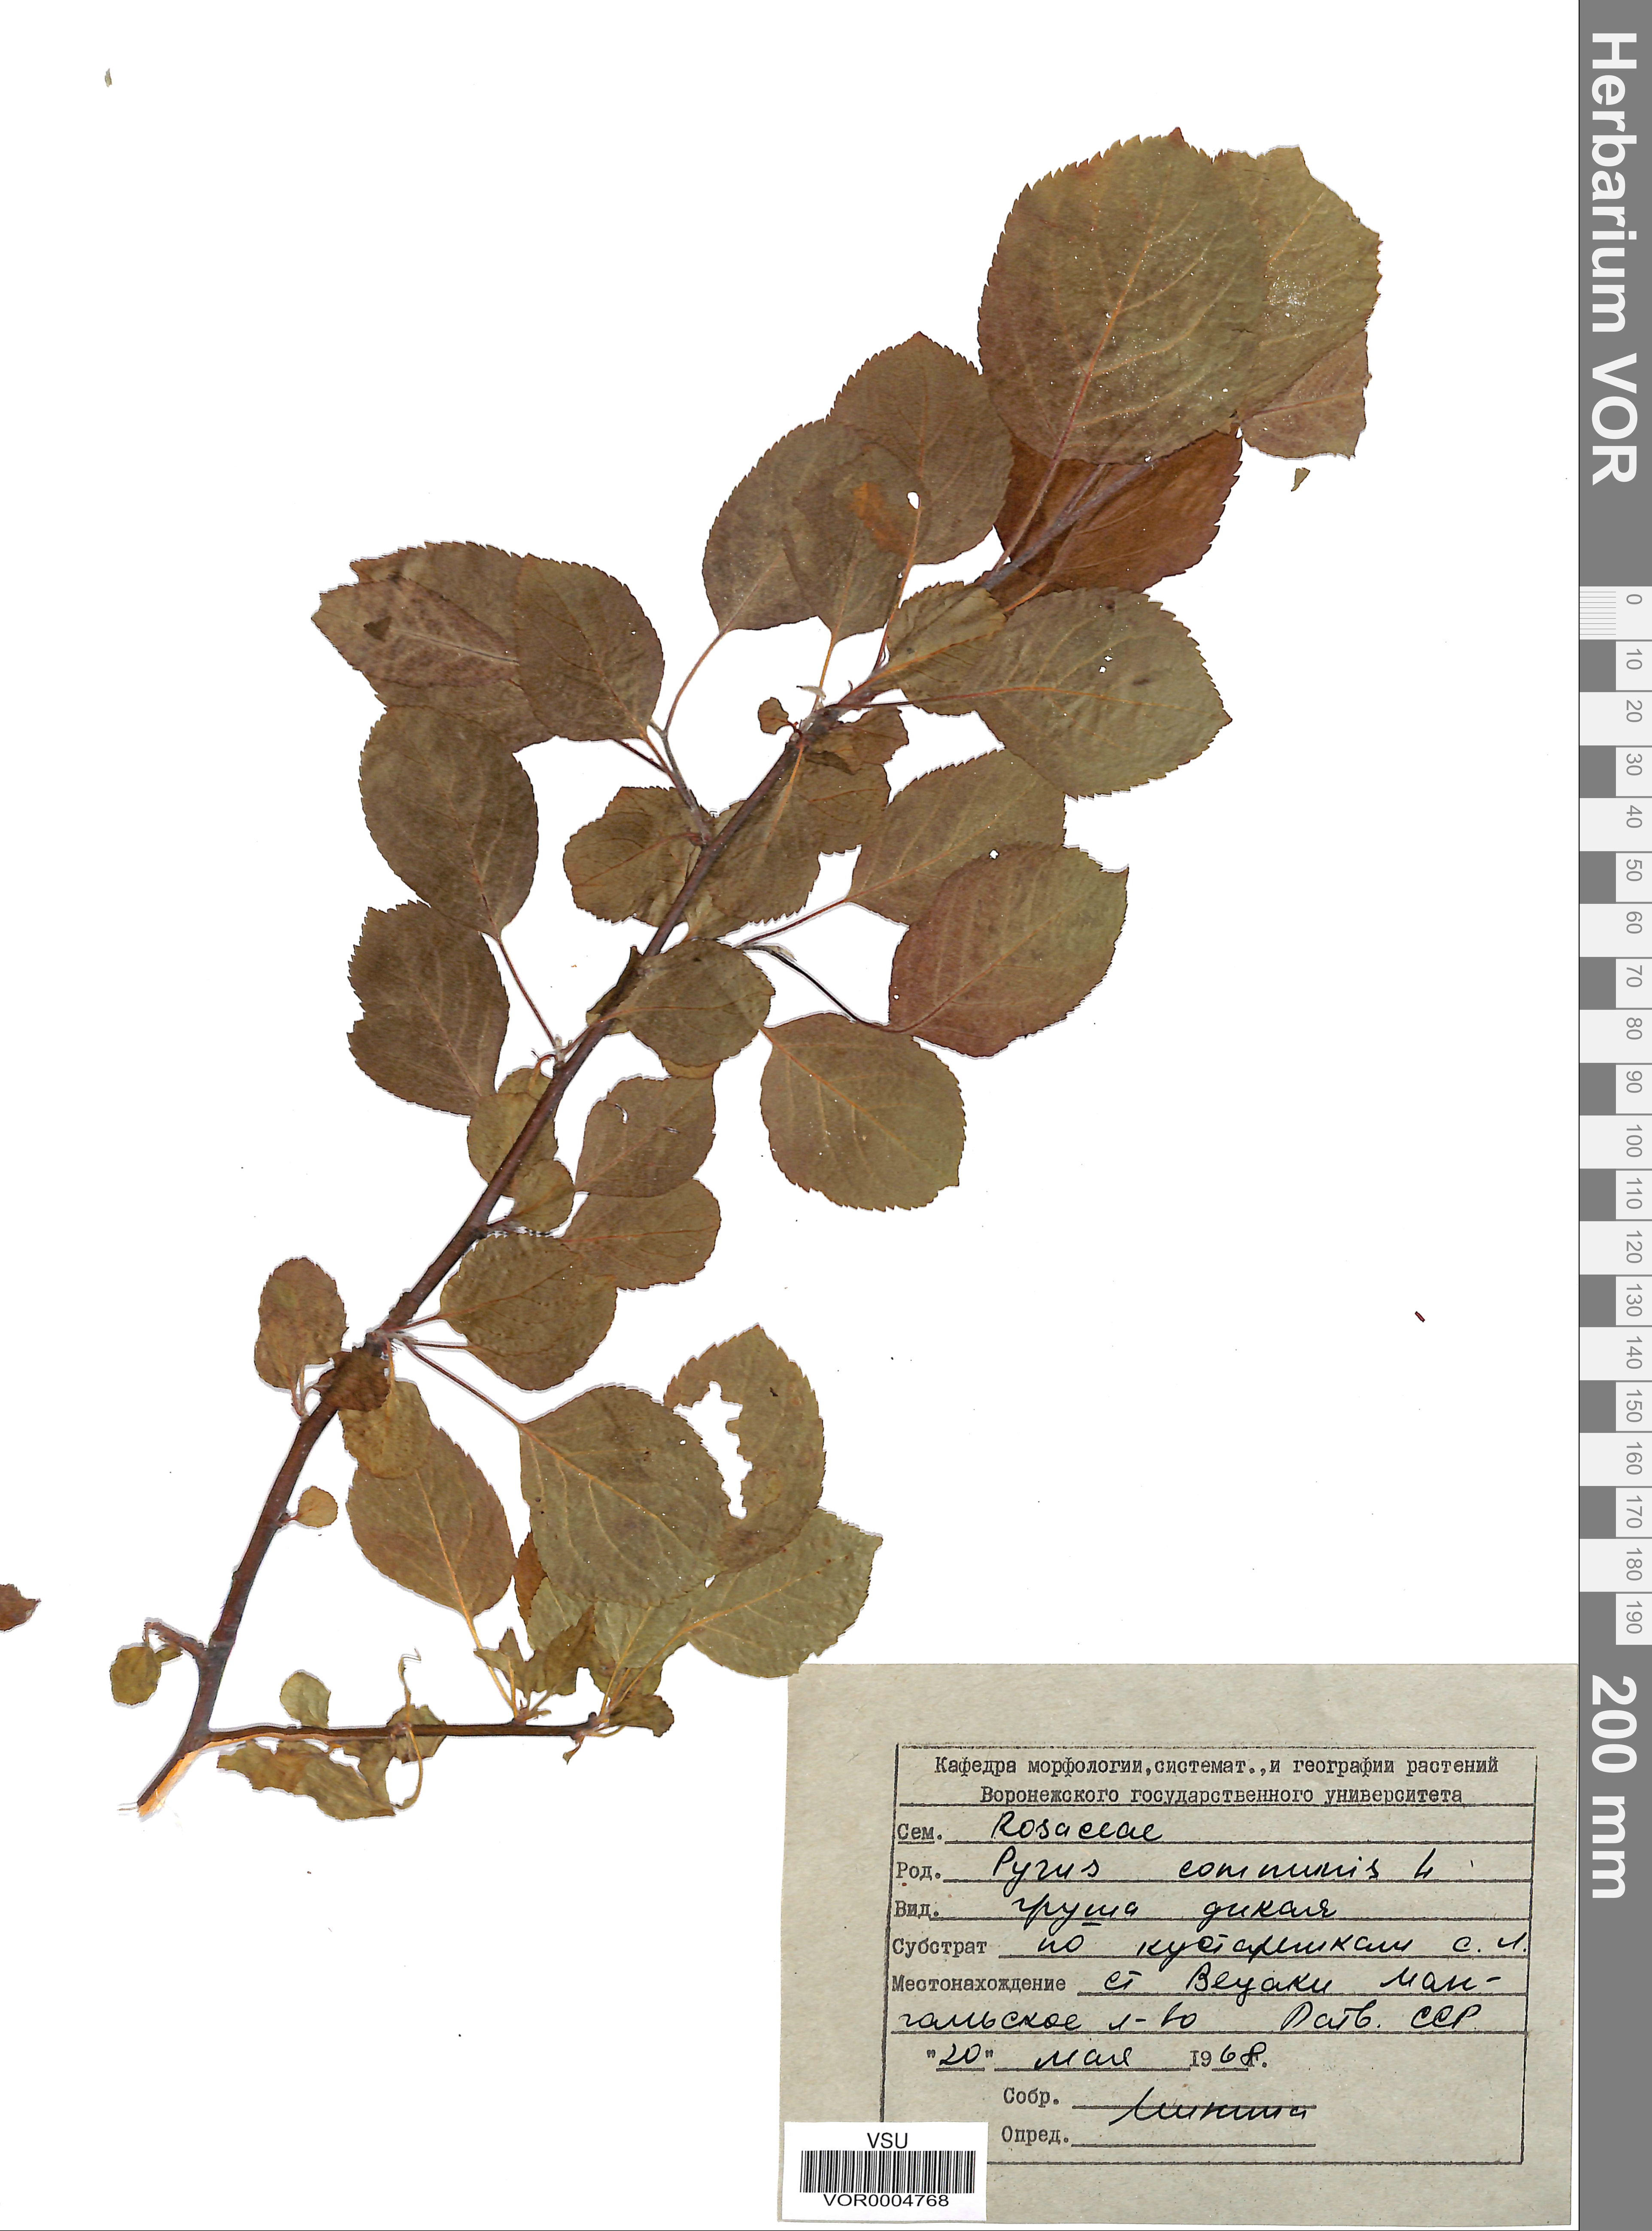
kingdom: Plantae
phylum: Tracheophyta
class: Magnoliopsida
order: Rosales
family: Rosaceae
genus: Pyrus
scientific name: Pyrus communis
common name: Pear
